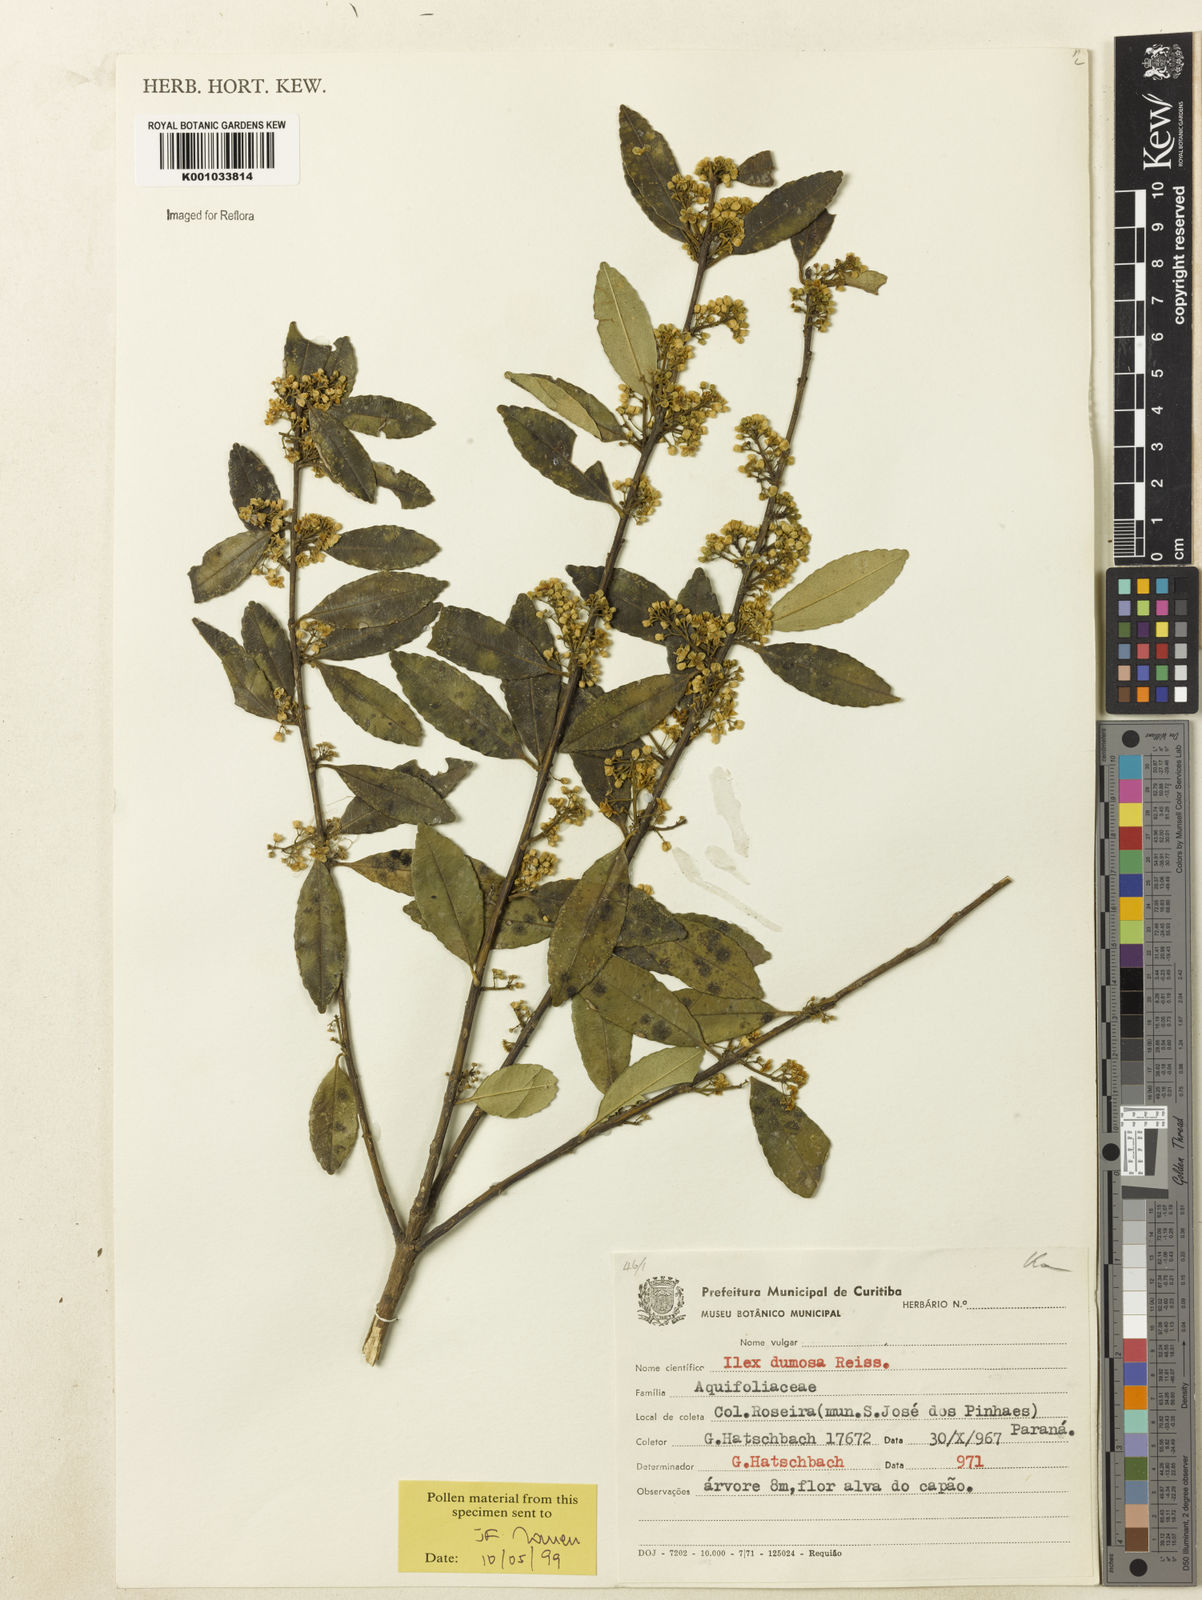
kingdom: Plantae
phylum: Tracheophyta
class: Magnoliopsida
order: Aquifoliales
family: Aquifoliaceae
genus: Ilex
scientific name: Ilex dumosa
